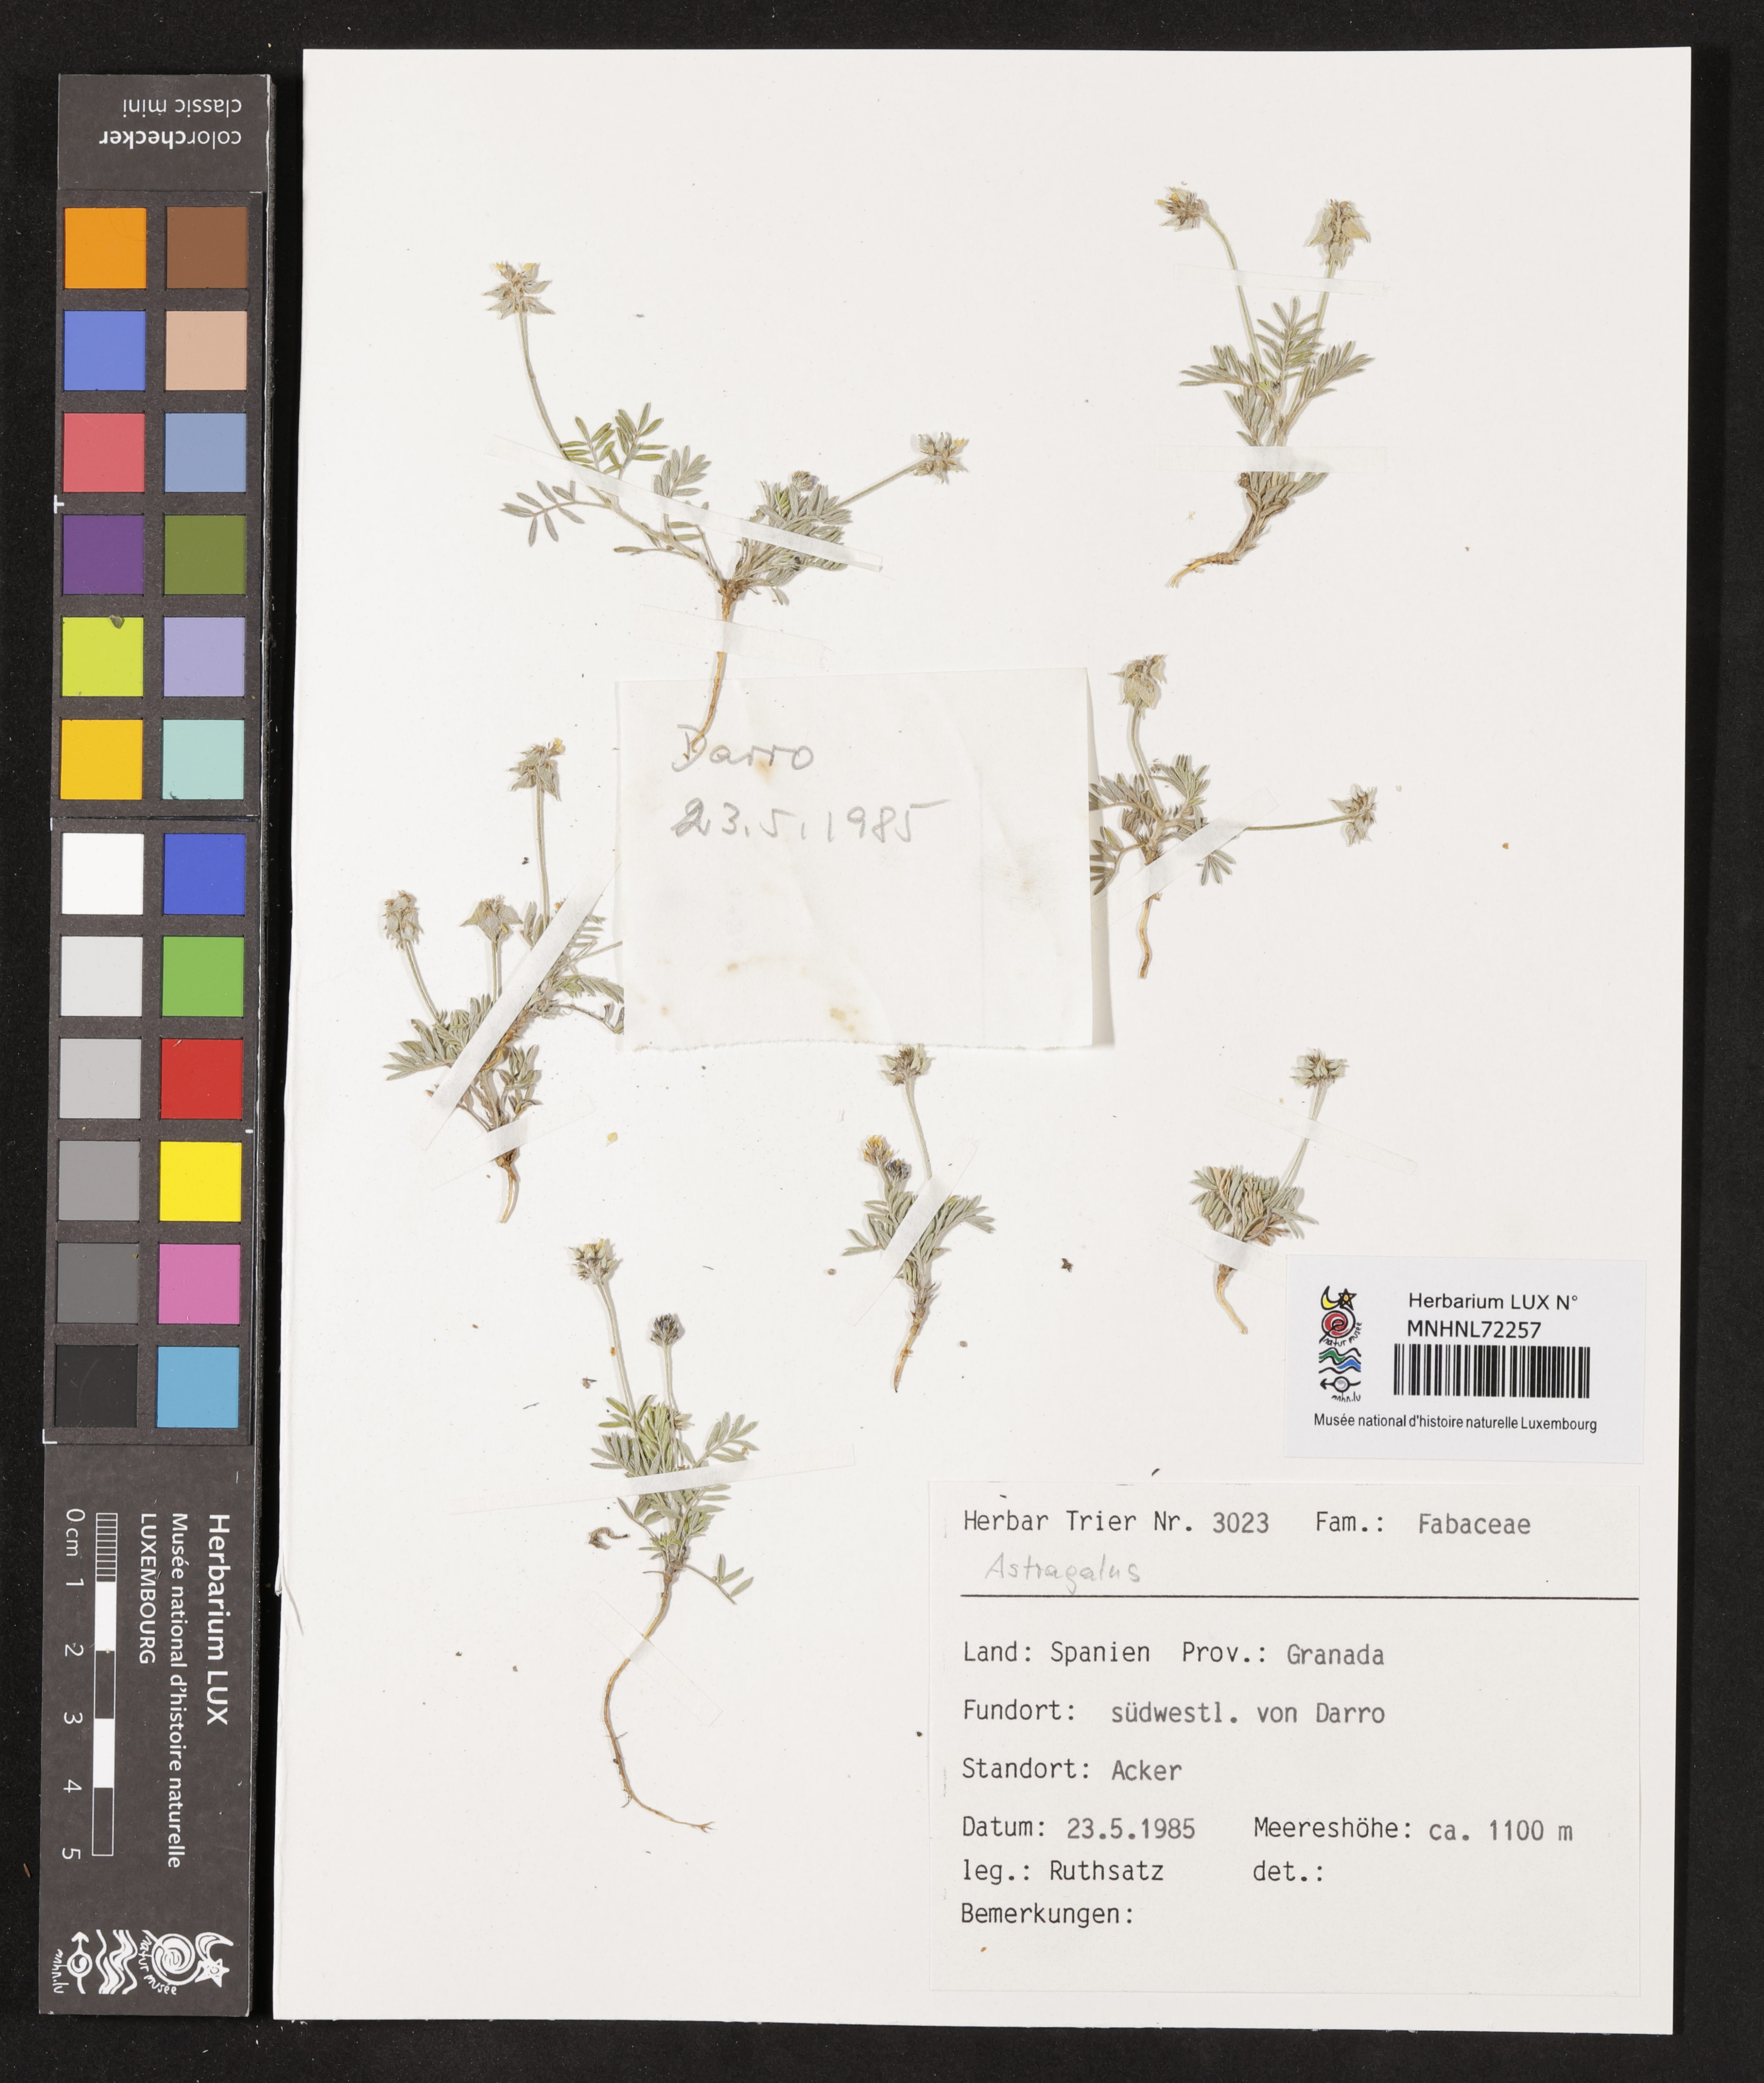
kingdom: Plantae
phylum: Tracheophyta
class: Magnoliopsida
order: Fabales
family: Fabaceae
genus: Astragalus
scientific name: Astragalus
